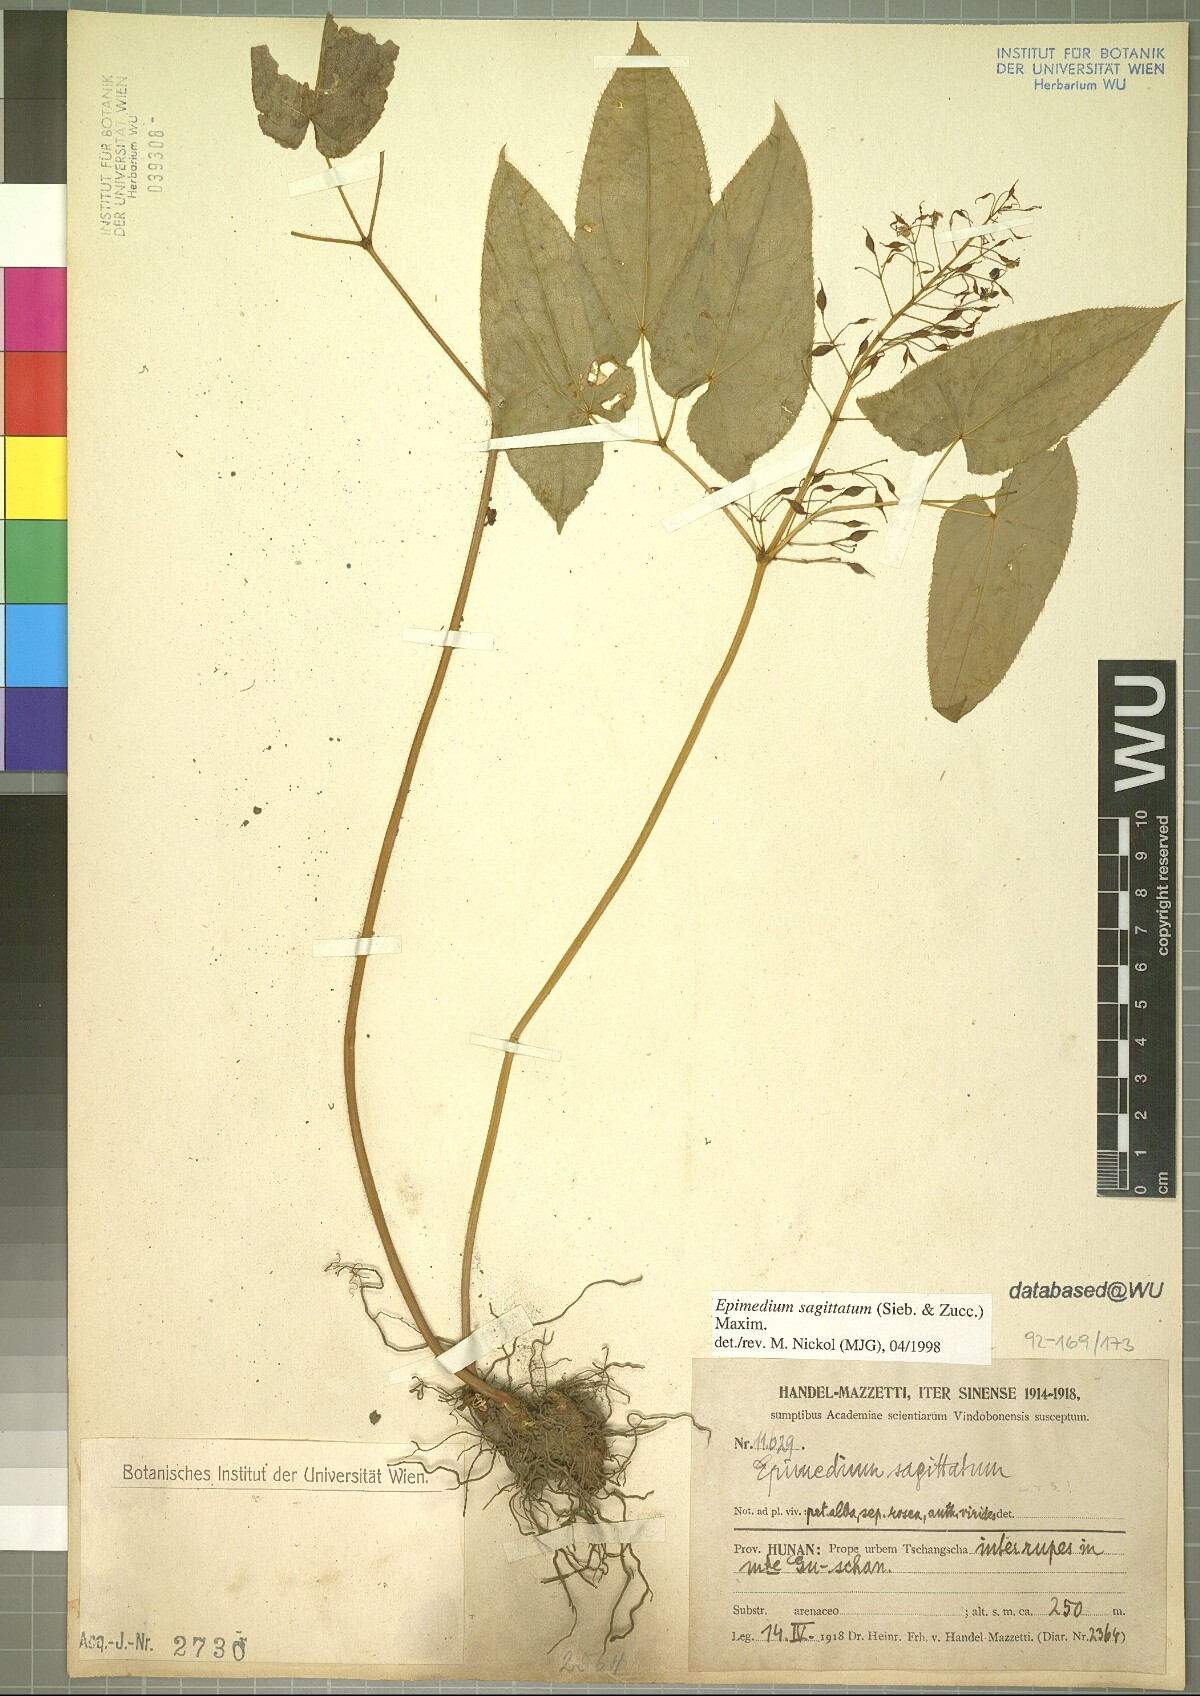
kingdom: Plantae
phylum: Tracheophyta
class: Magnoliopsida
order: Ranunculales
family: Berberidaceae
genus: Epimedium
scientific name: Epimedium sagittatum
